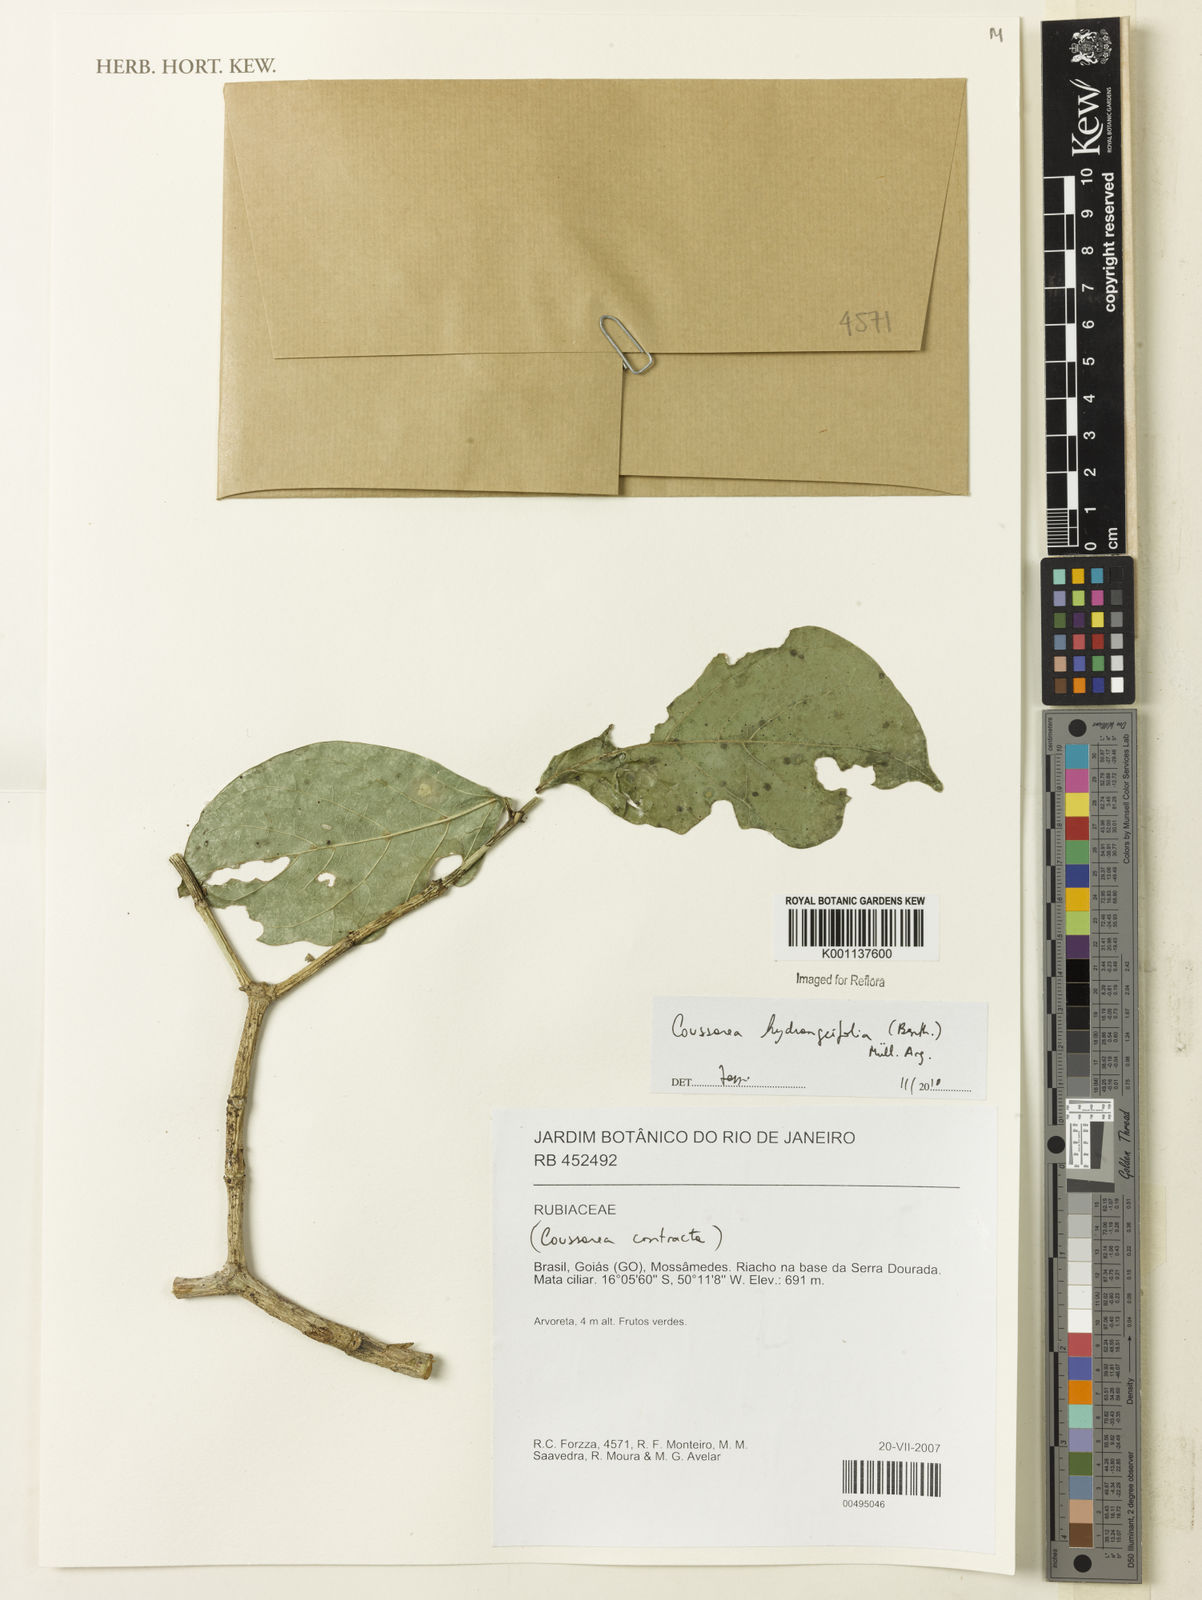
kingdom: Plantae
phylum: Tracheophyta
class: Magnoliopsida
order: Gentianales
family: Rubiaceae
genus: Coussarea
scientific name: Coussarea
